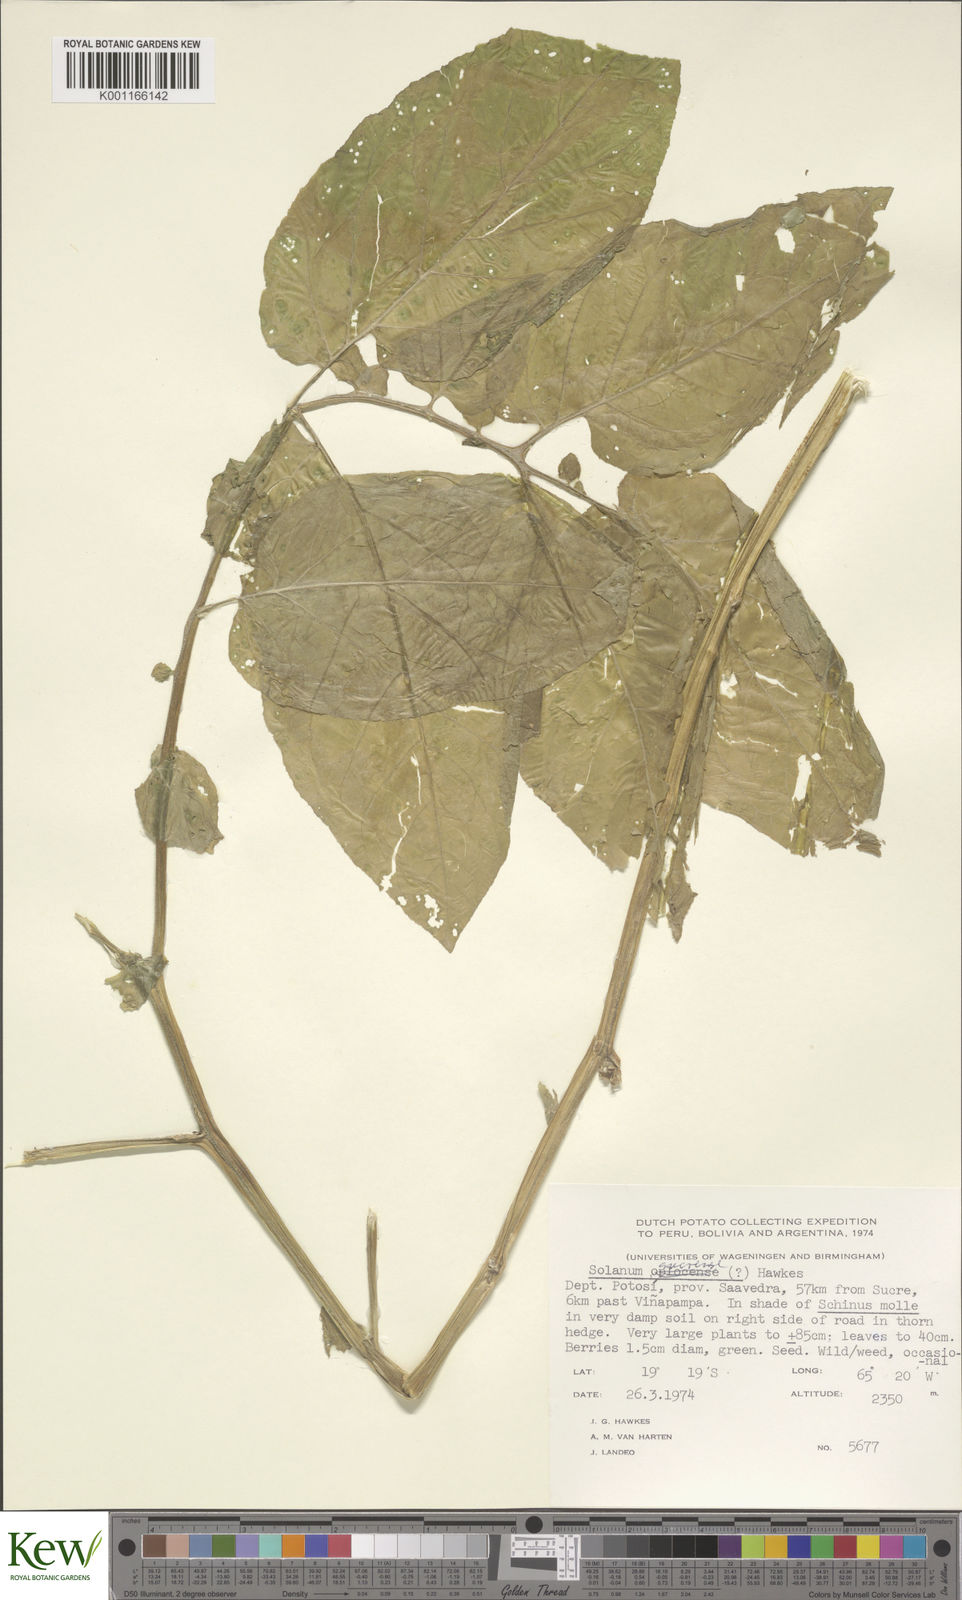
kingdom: Plantae
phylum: Tracheophyta
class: Magnoliopsida
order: Solanales
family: Solanaceae
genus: Solanum
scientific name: Solanum brevicaule
